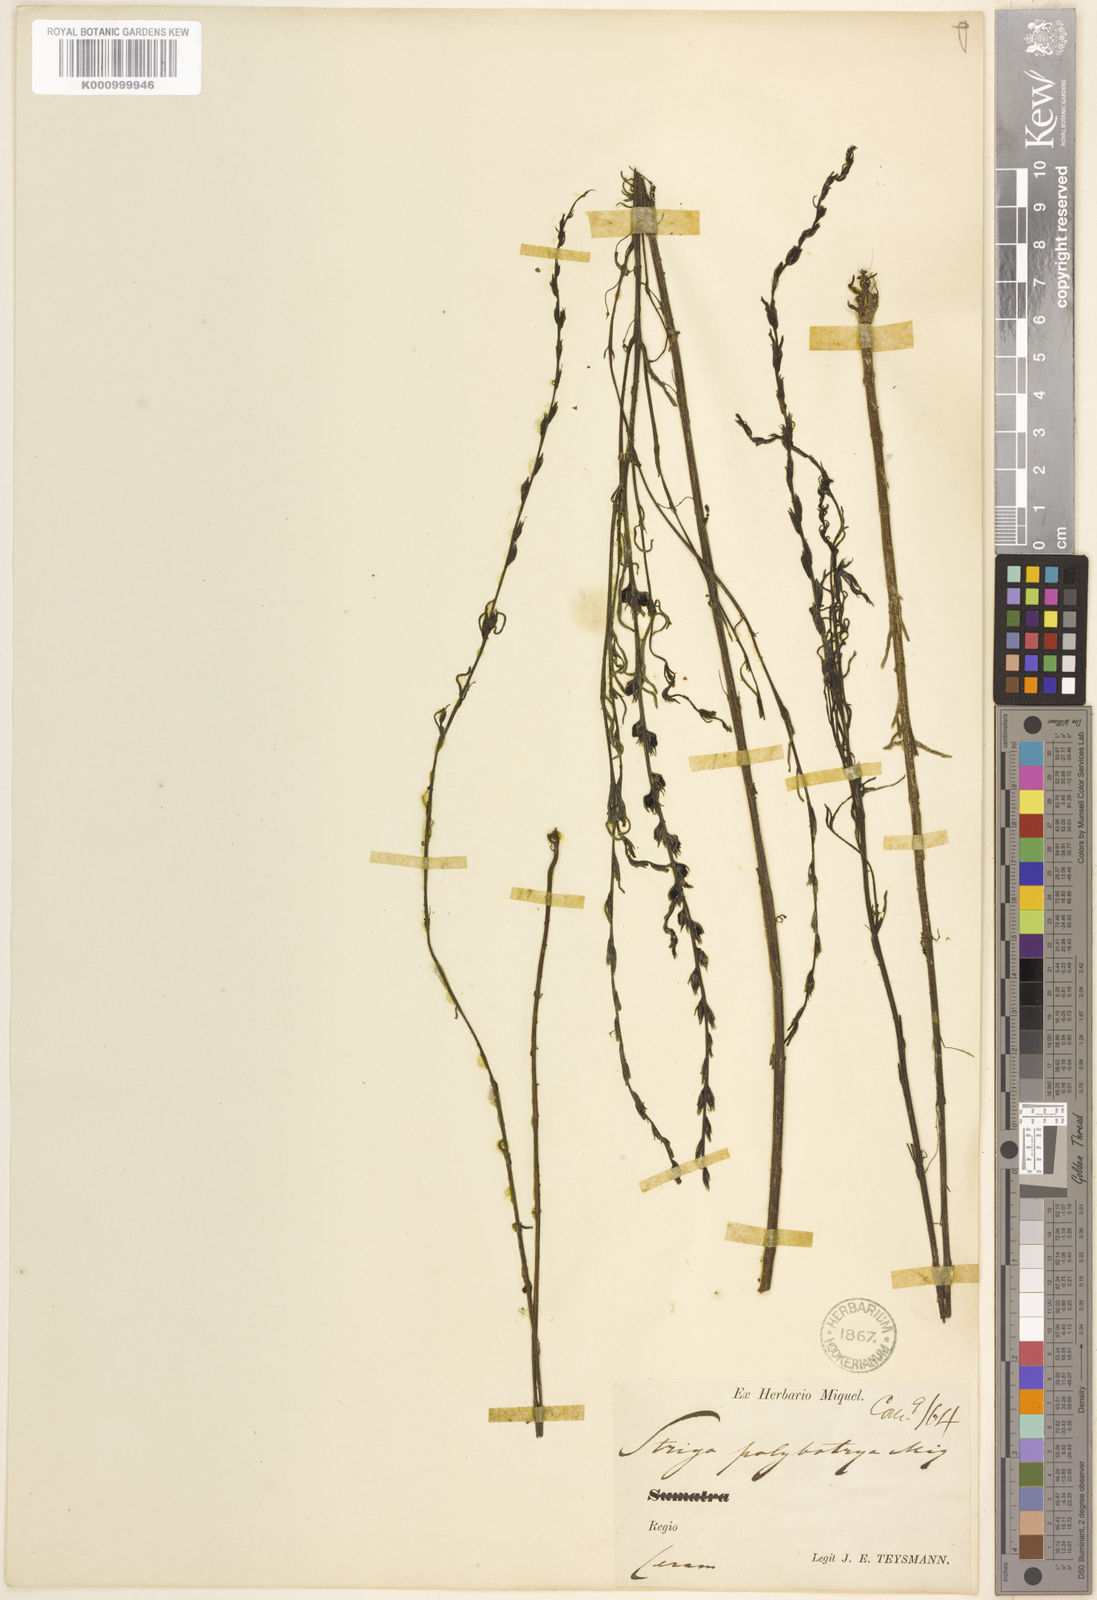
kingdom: Plantae
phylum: Tracheophyta
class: Magnoliopsida
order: Lamiales
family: Orobanchaceae
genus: Striga
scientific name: Striga
